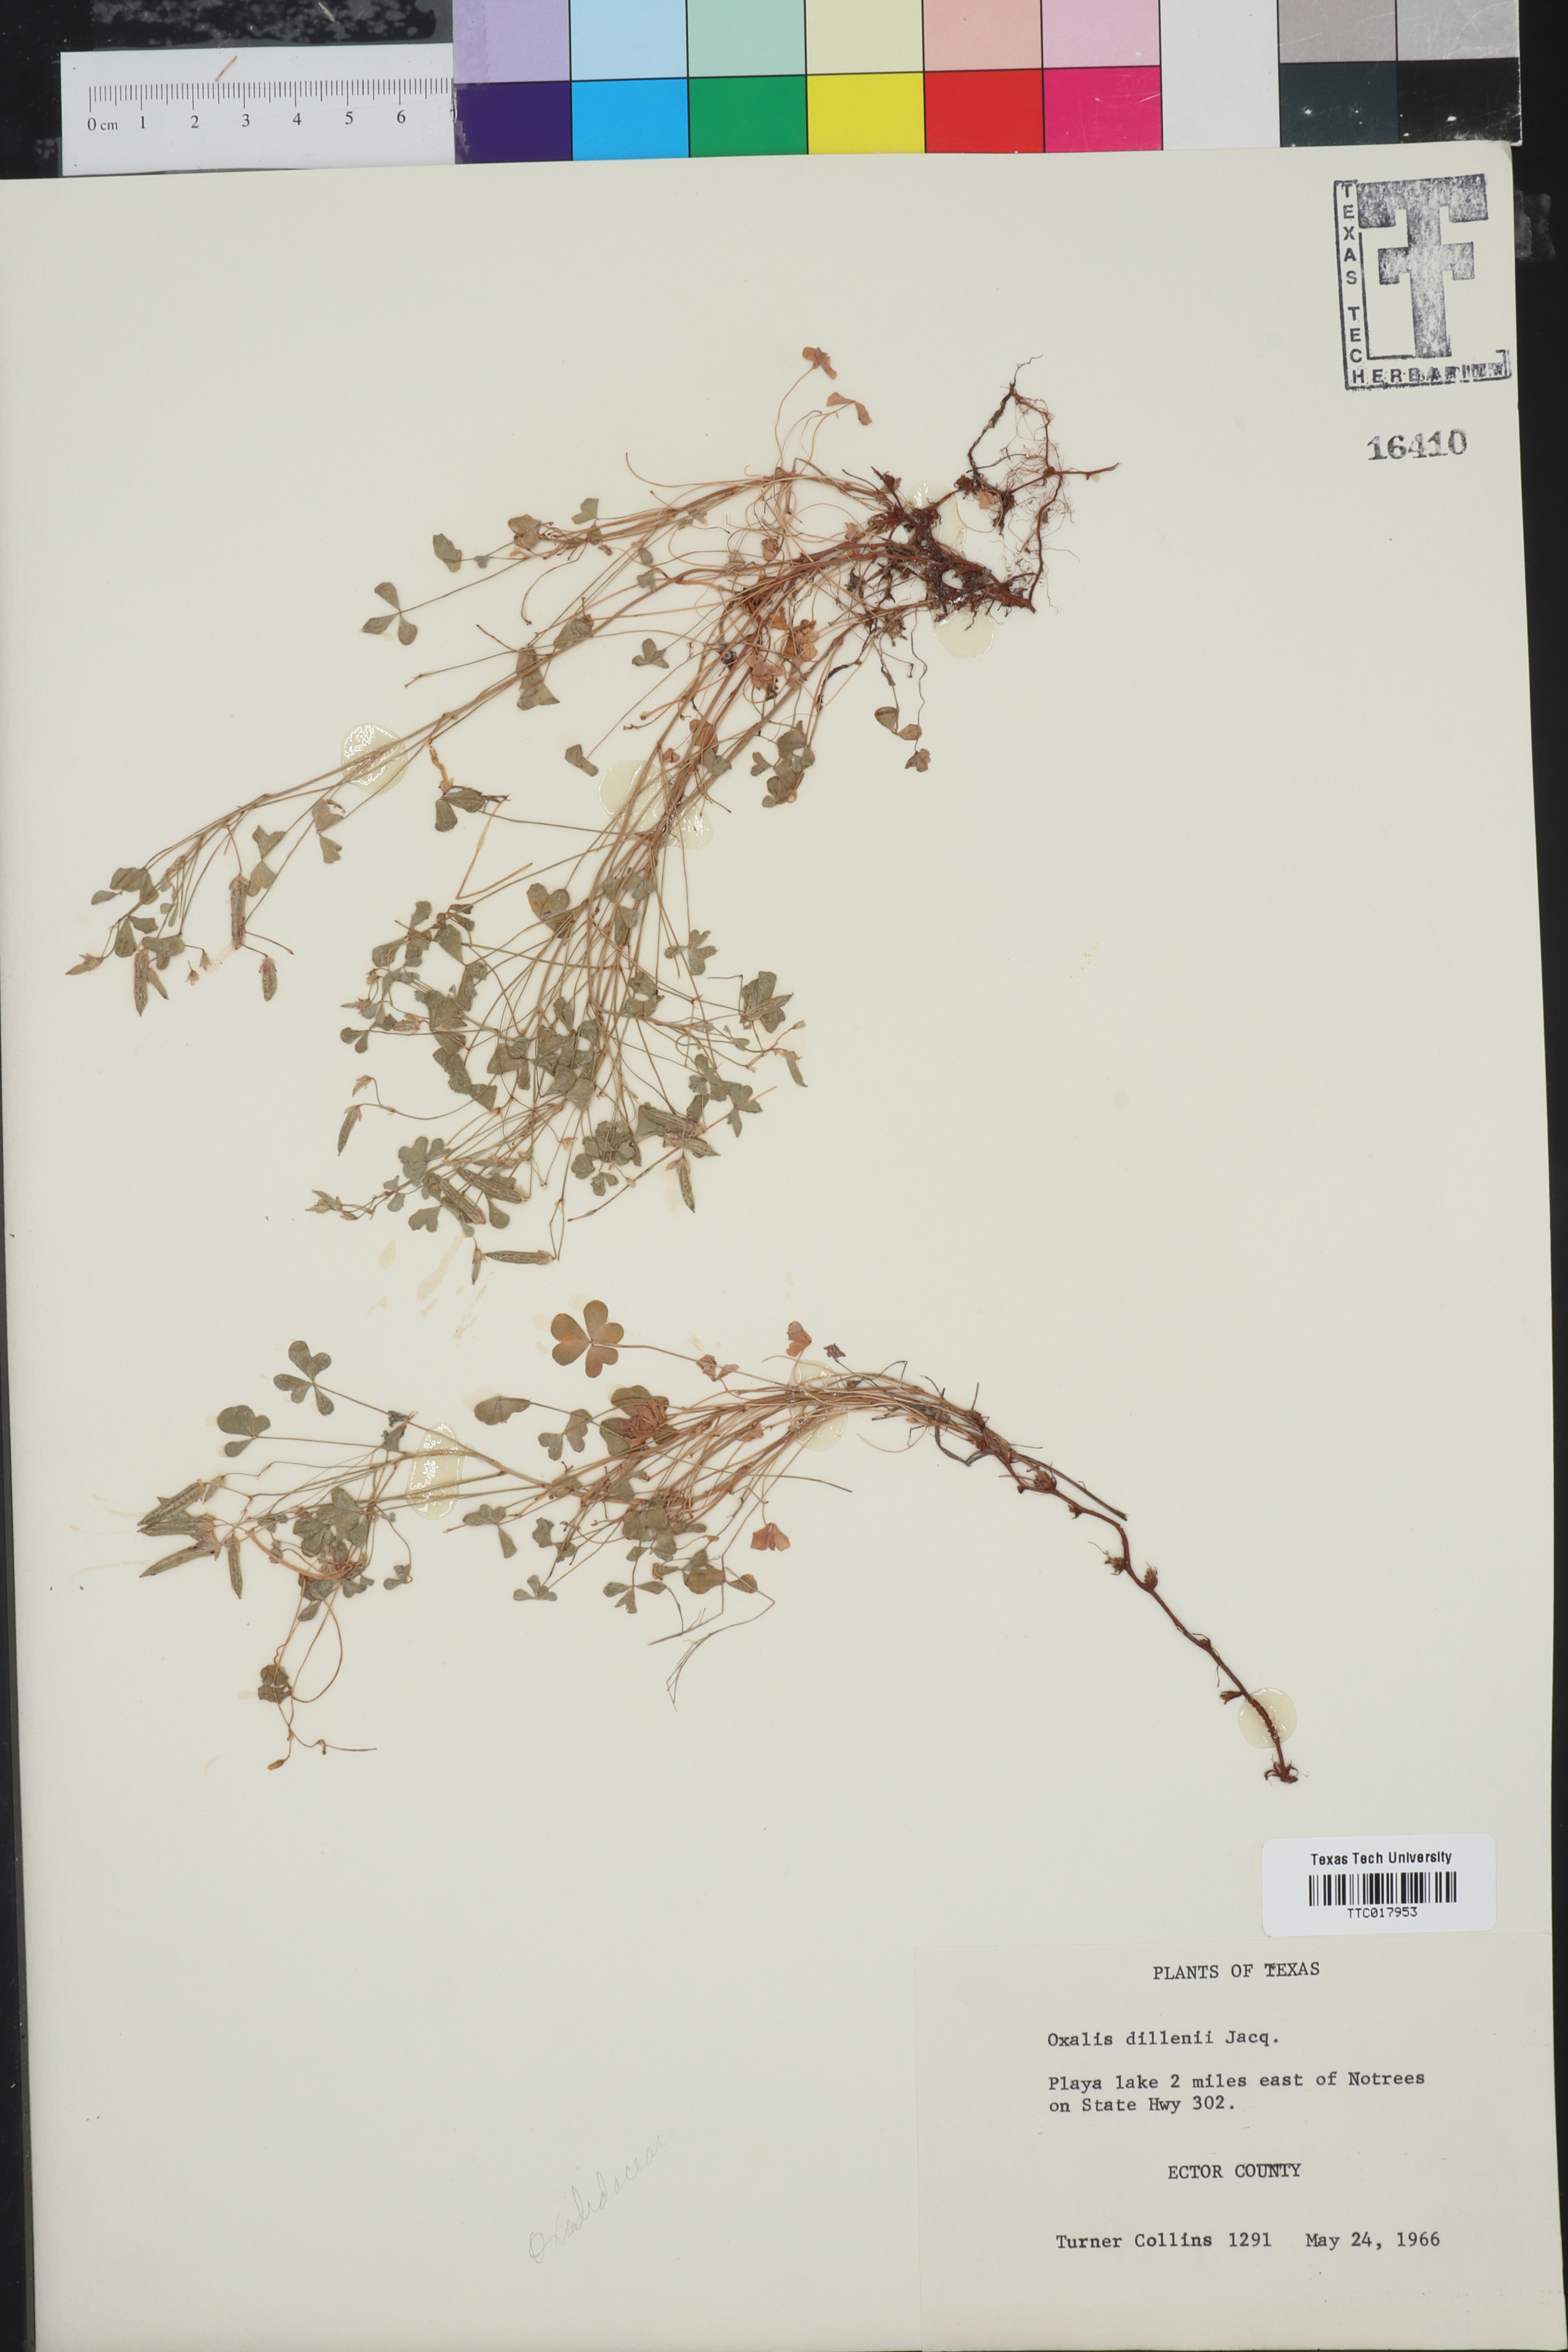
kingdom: Plantae
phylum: Tracheophyta
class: Magnoliopsida
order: Oxalidales
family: Oxalidaceae
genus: Oxalis
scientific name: Oxalis dillenii
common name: Sussex yellow-sorrel
